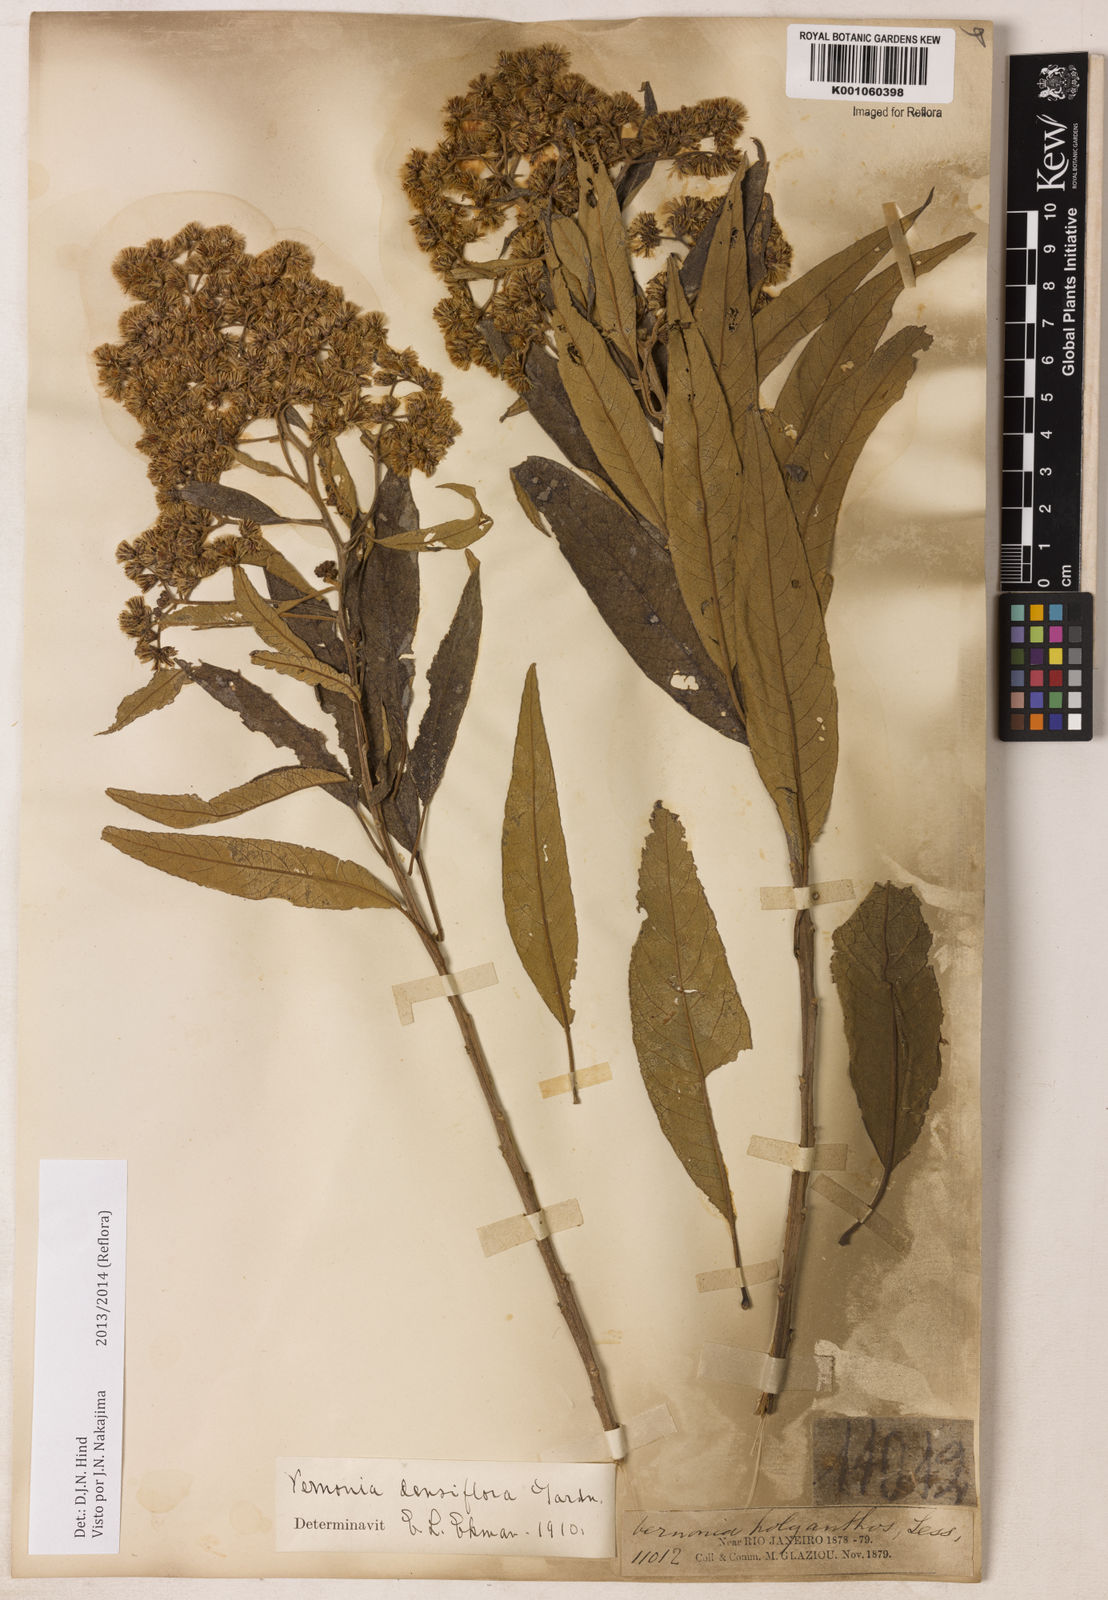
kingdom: Plantae
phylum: Tracheophyta
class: Magnoliopsida
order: Asterales
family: Asteraceae
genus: Vernonanthura
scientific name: Vernonanthura densiflora
